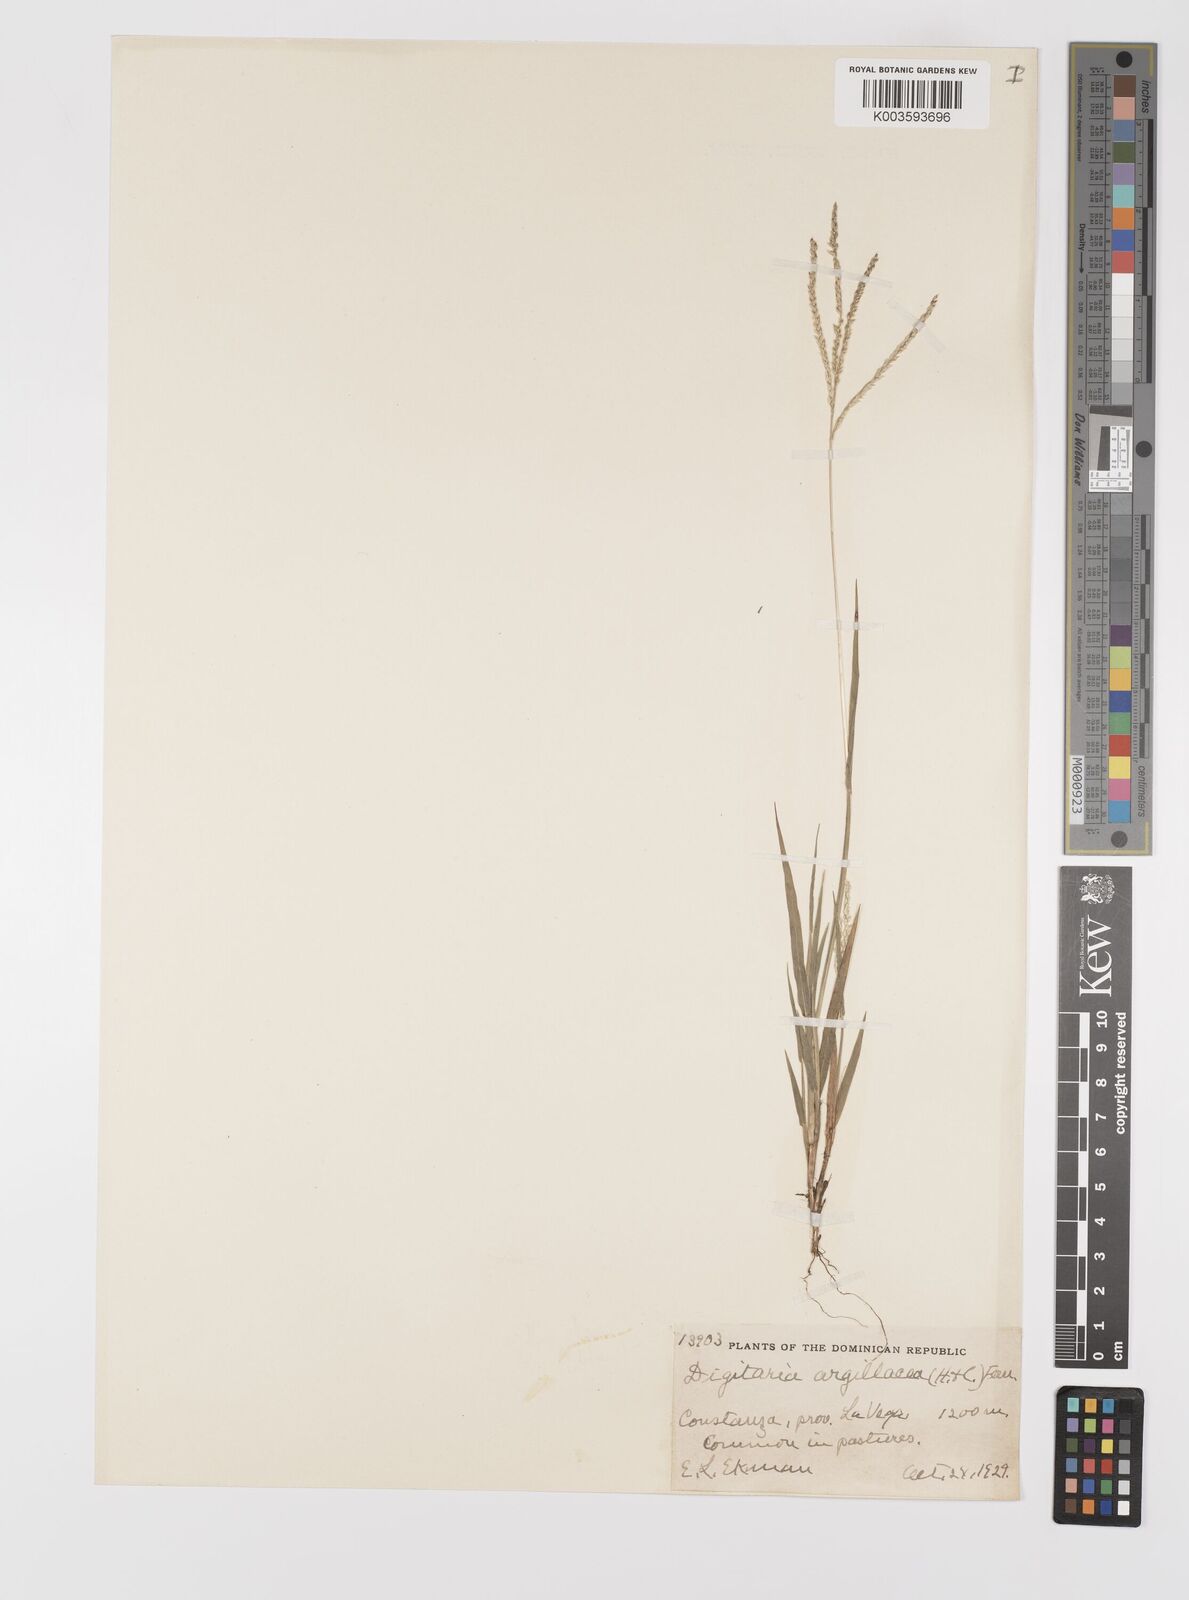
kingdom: Plantae
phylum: Tracheophyta
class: Liliopsida
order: Poales
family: Poaceae
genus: Digitaria
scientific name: Digitaria argillacea
